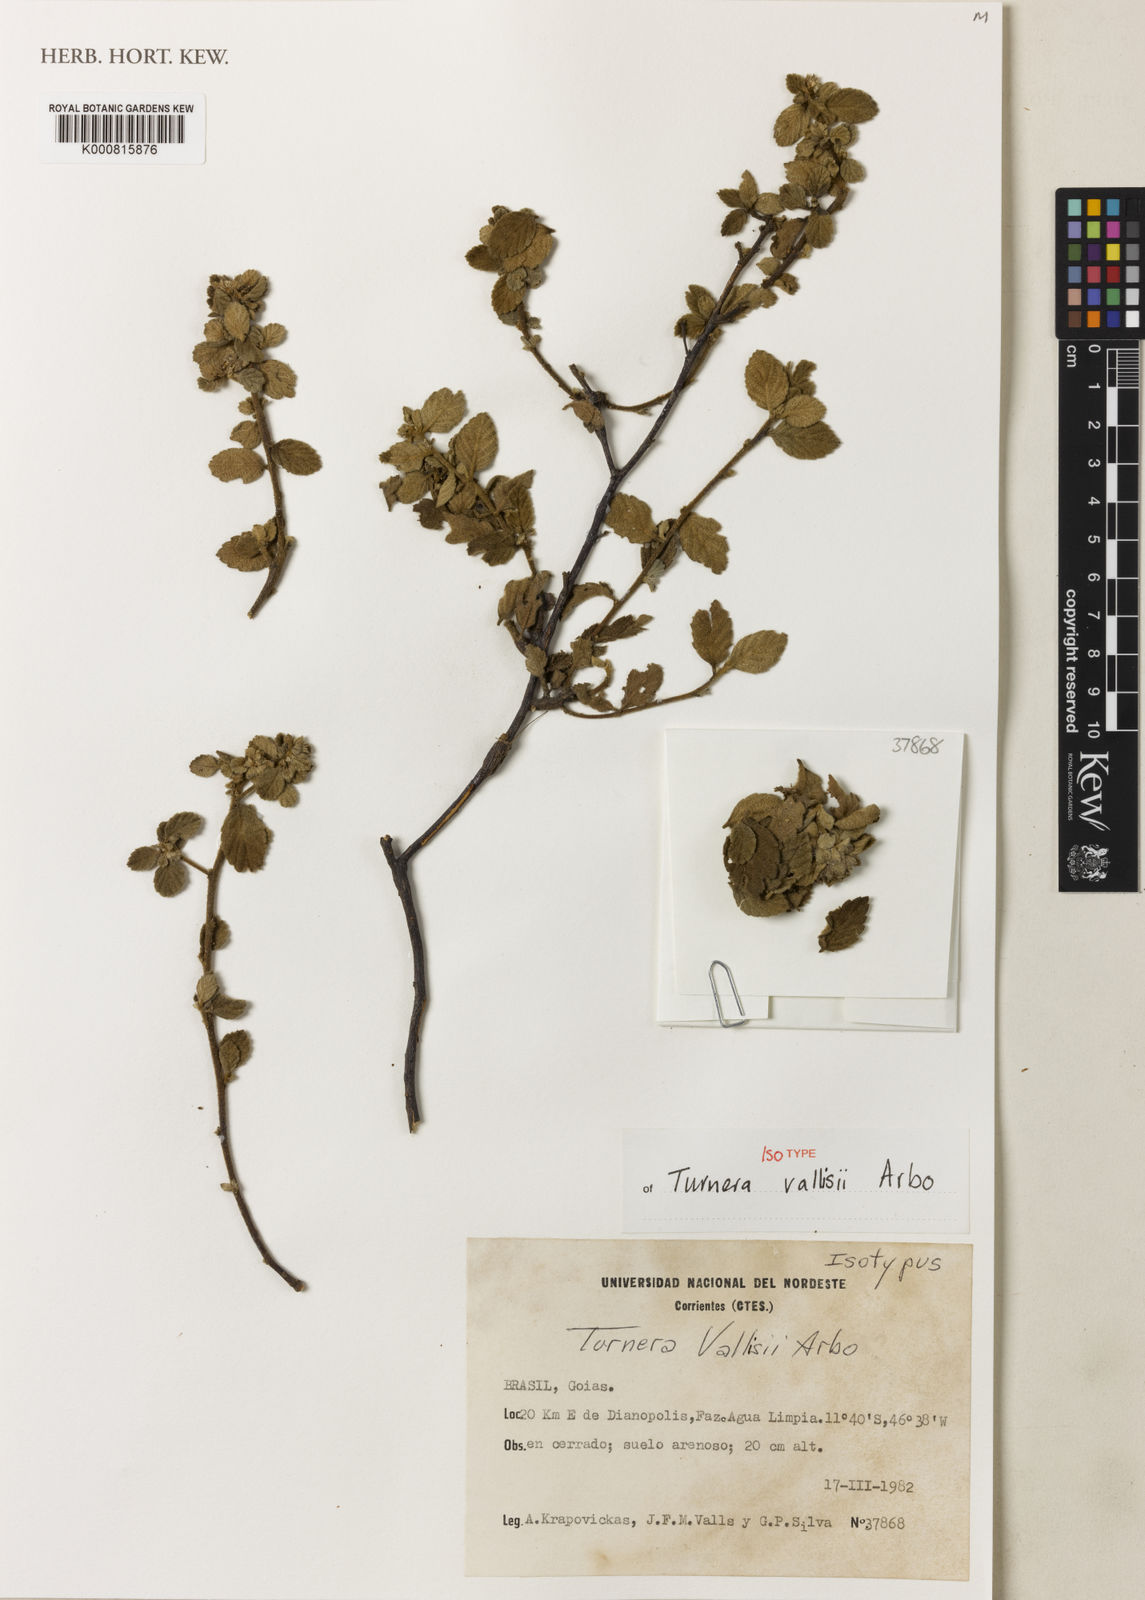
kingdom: Plantae
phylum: Tracheophyta
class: Magnoliopsida
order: Malpighiales
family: Turneraceae
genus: Turnera
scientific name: Turnera vallisii
